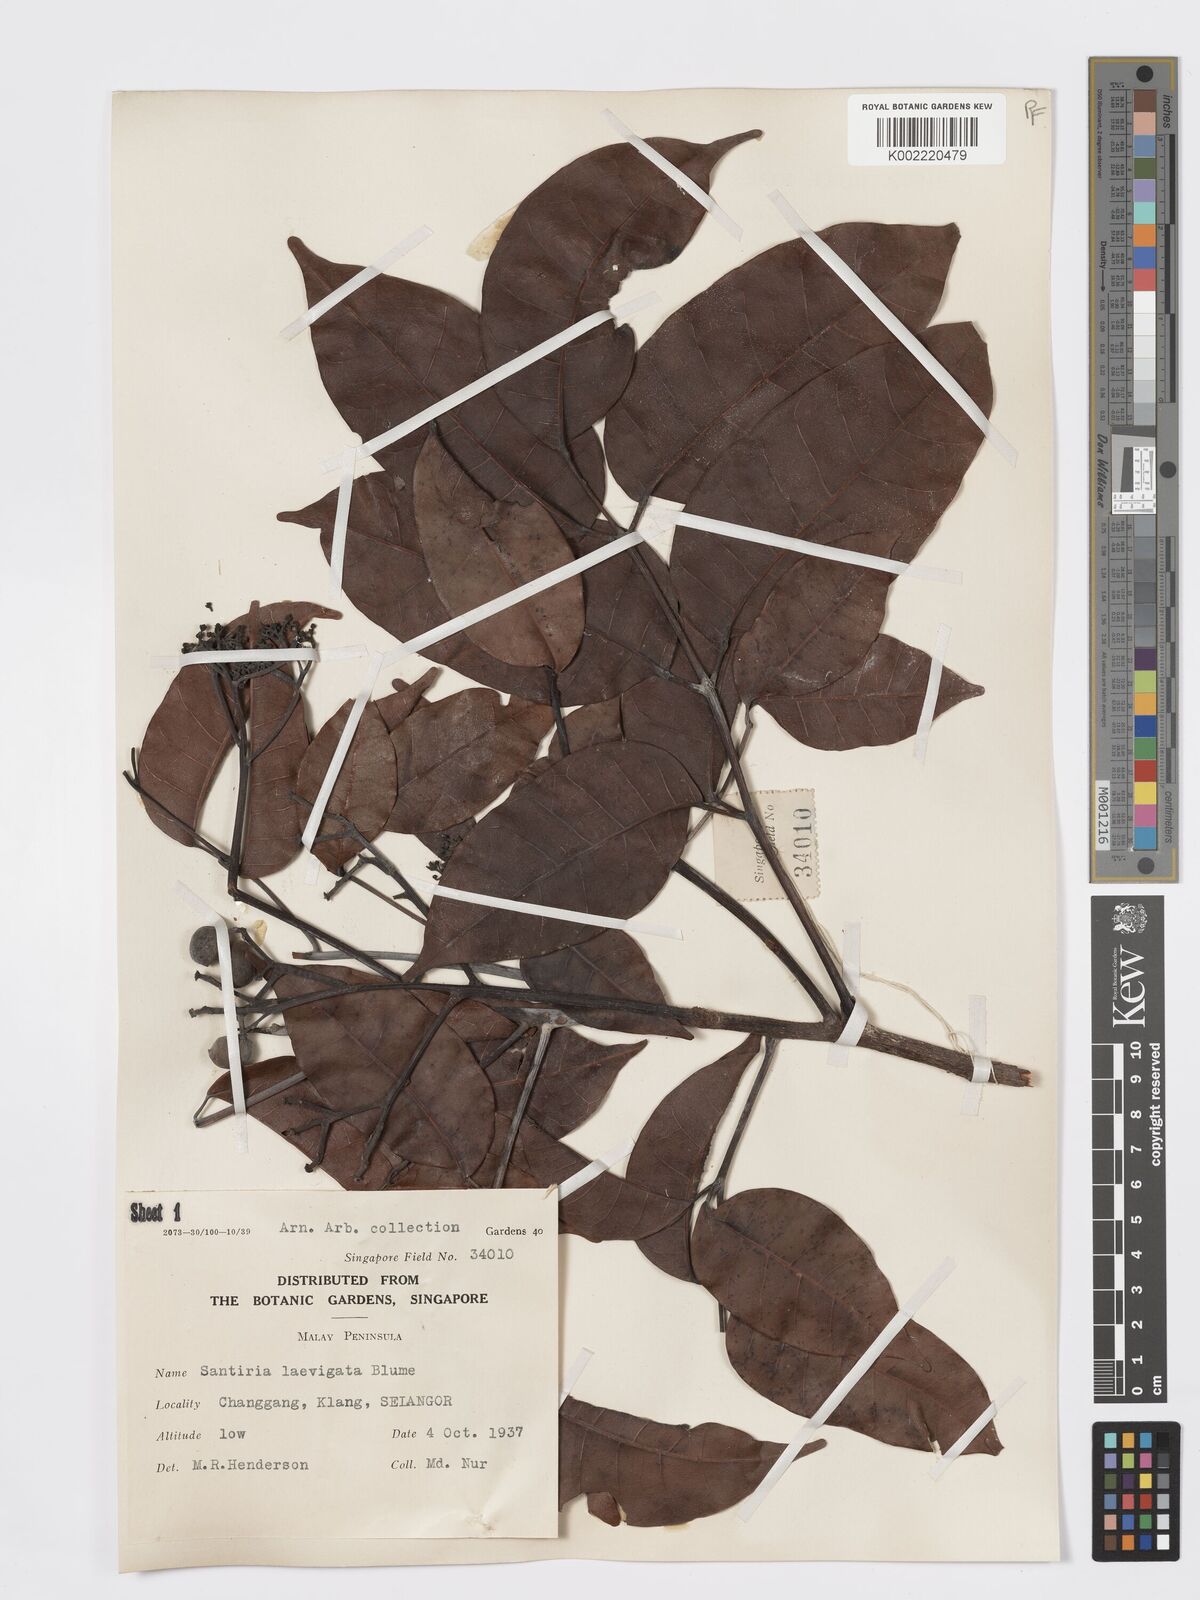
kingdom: Plantae
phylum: Tracheophyta
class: Magnoliopsida
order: Sapindales
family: Burseraceae
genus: Santiria
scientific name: Santiria laevigata
